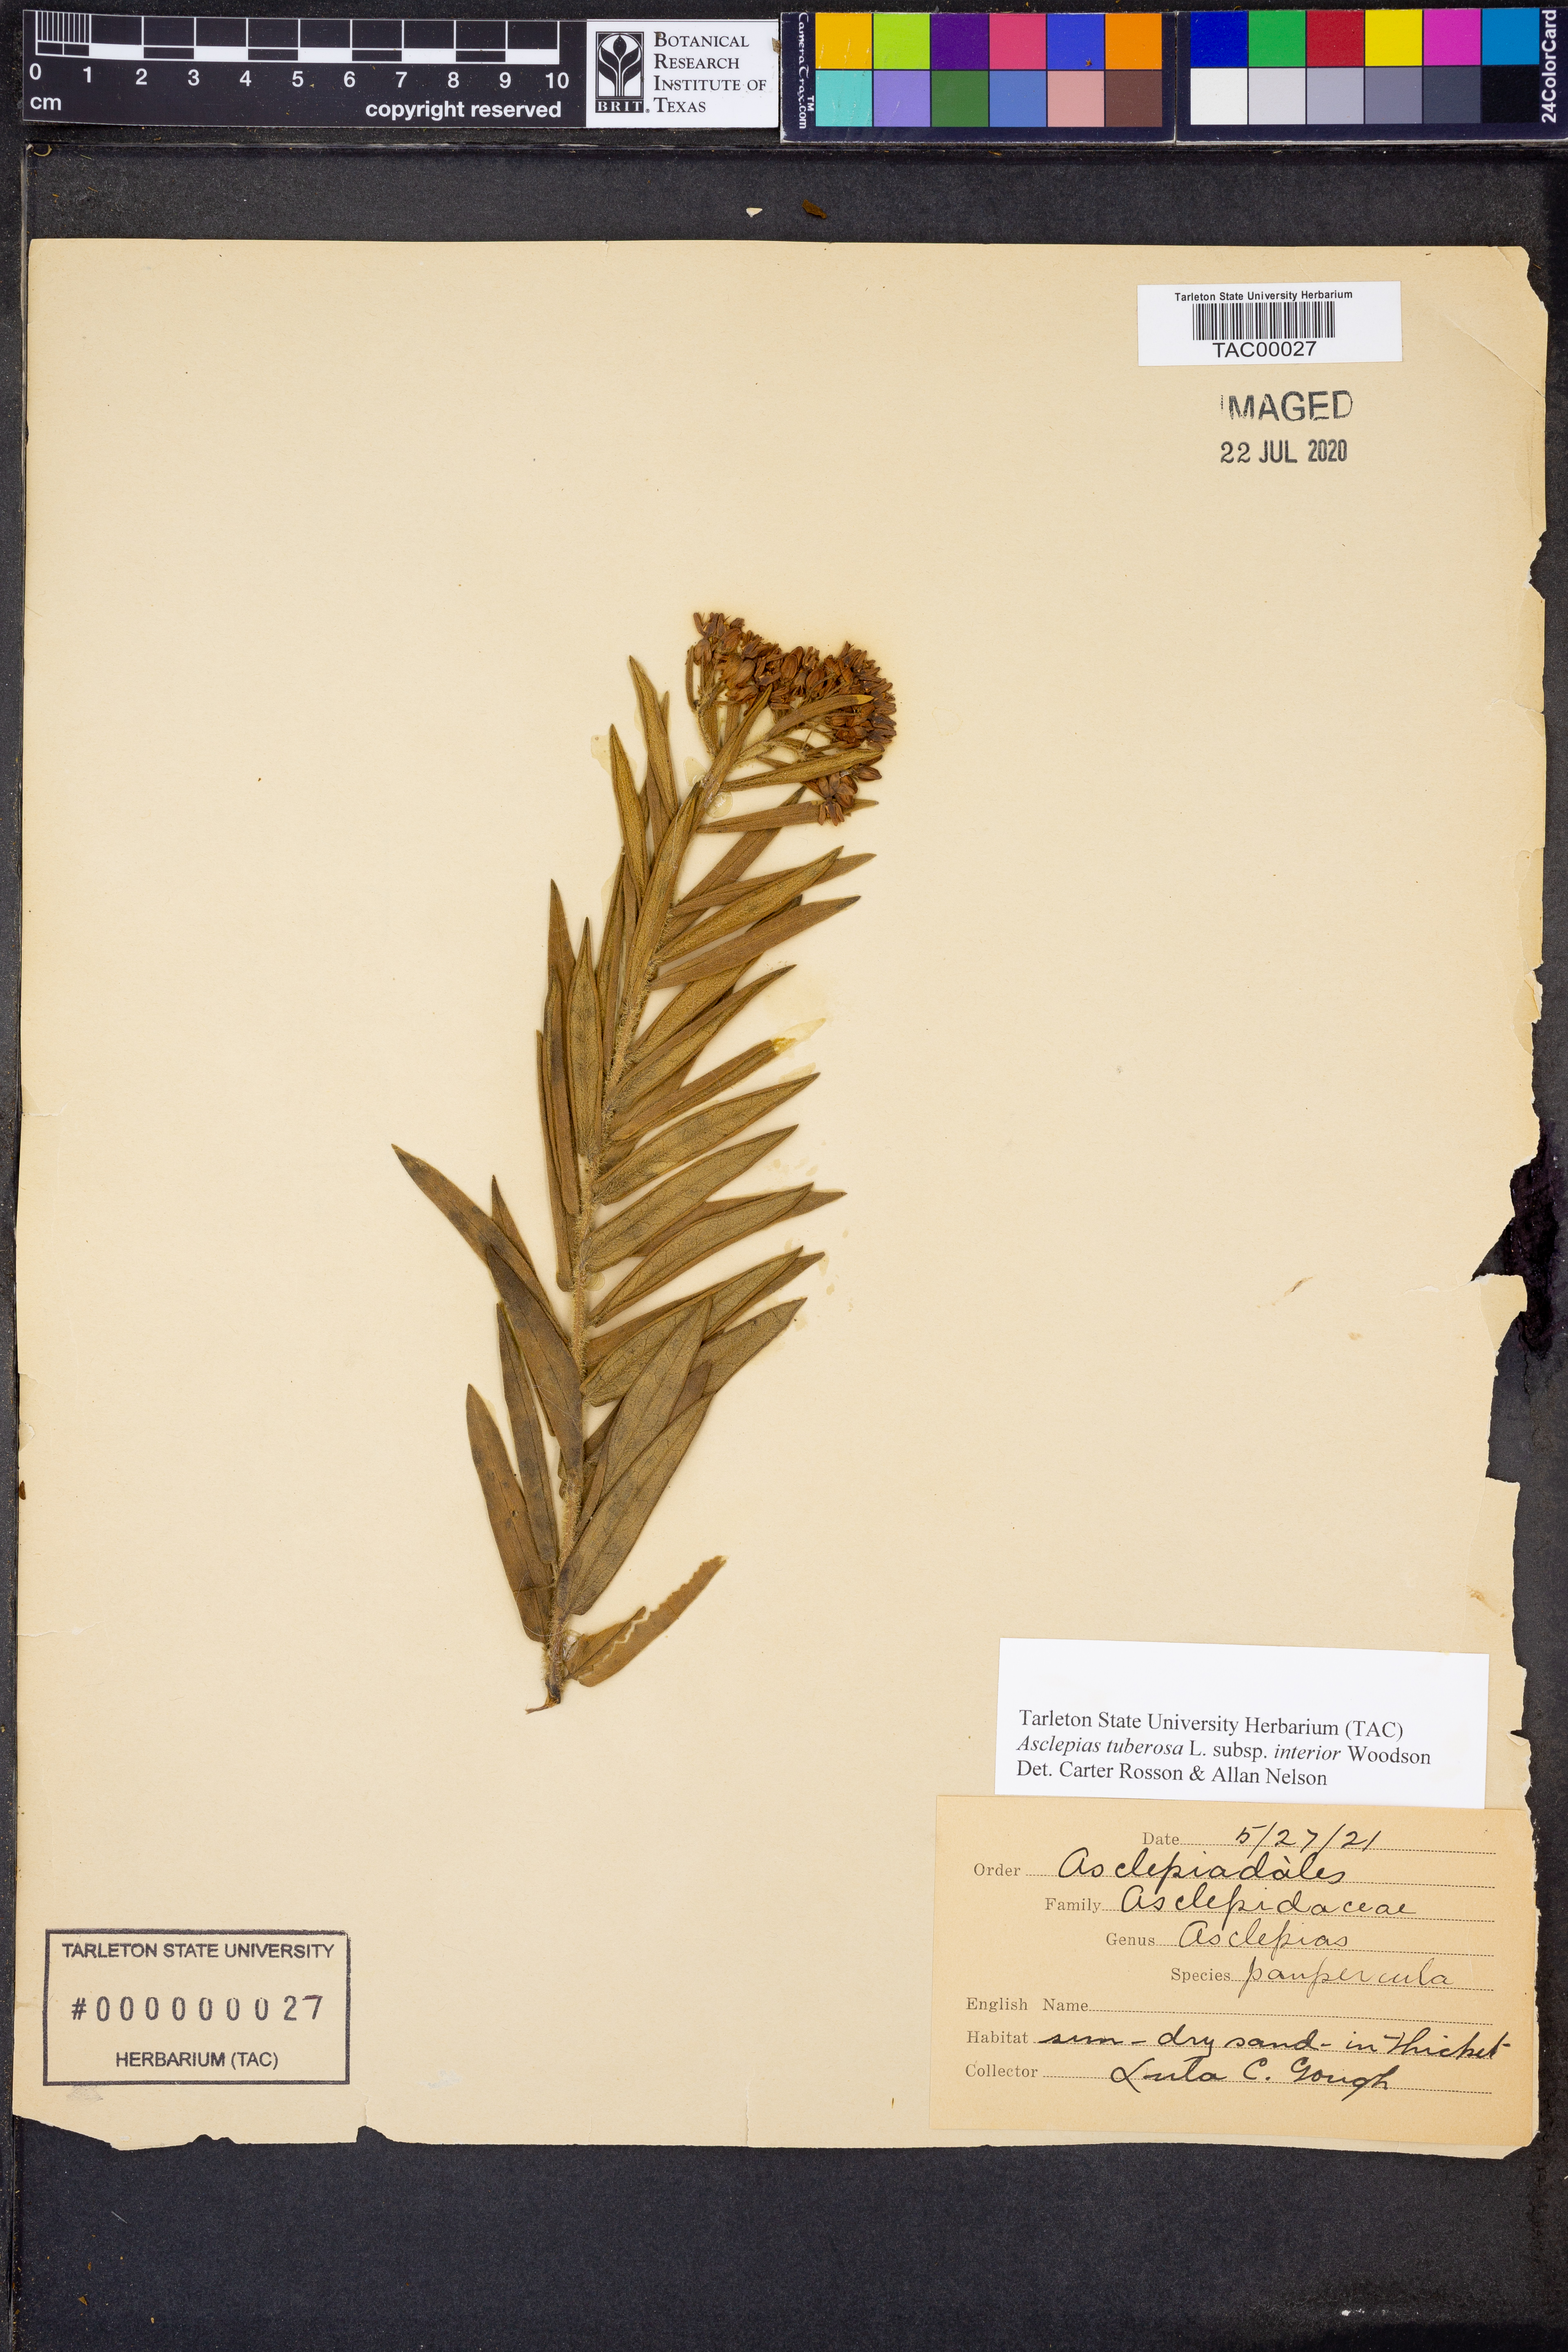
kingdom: Plantae
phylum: Tracheophyta
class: Magnoliopsida
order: Gentianales
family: Apocynaceae
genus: Asclepias
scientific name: Asclepias tuberosa
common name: Butterfly milkweed
